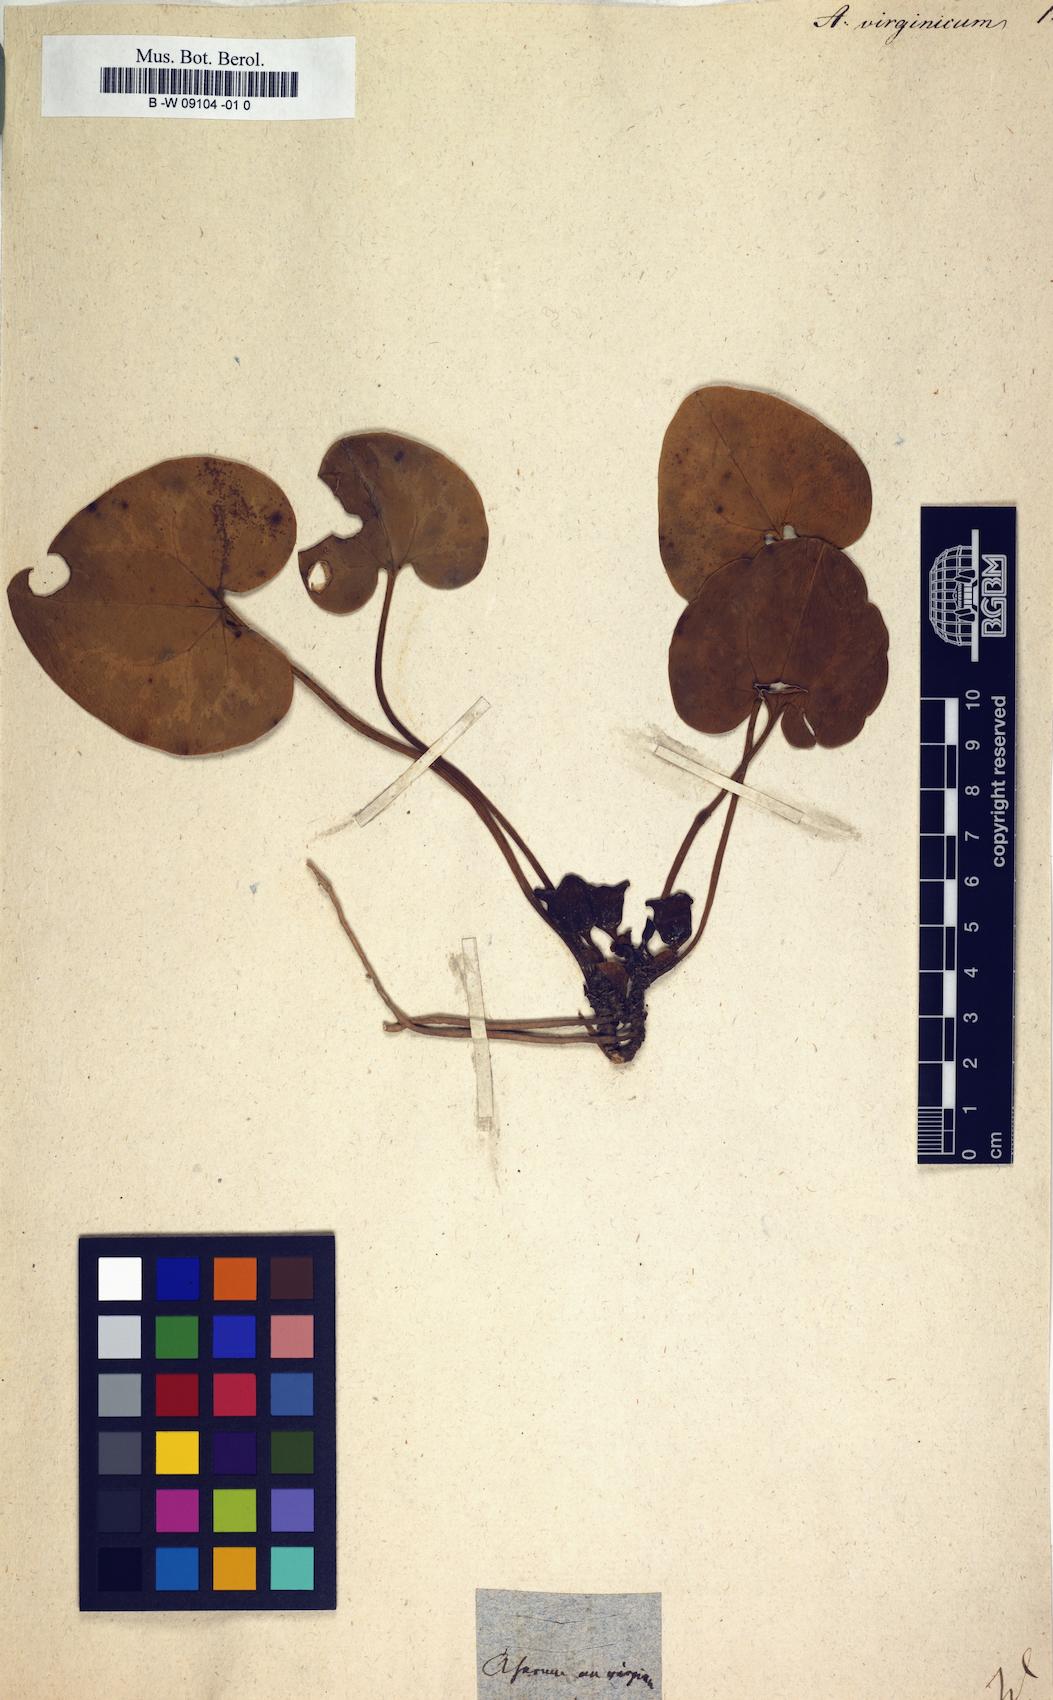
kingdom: Plantae
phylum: Tracheophyta
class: Magnoliopsida
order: Piperales
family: Aristolochiaceae
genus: Hexastylis
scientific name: Hexastylis virginica
